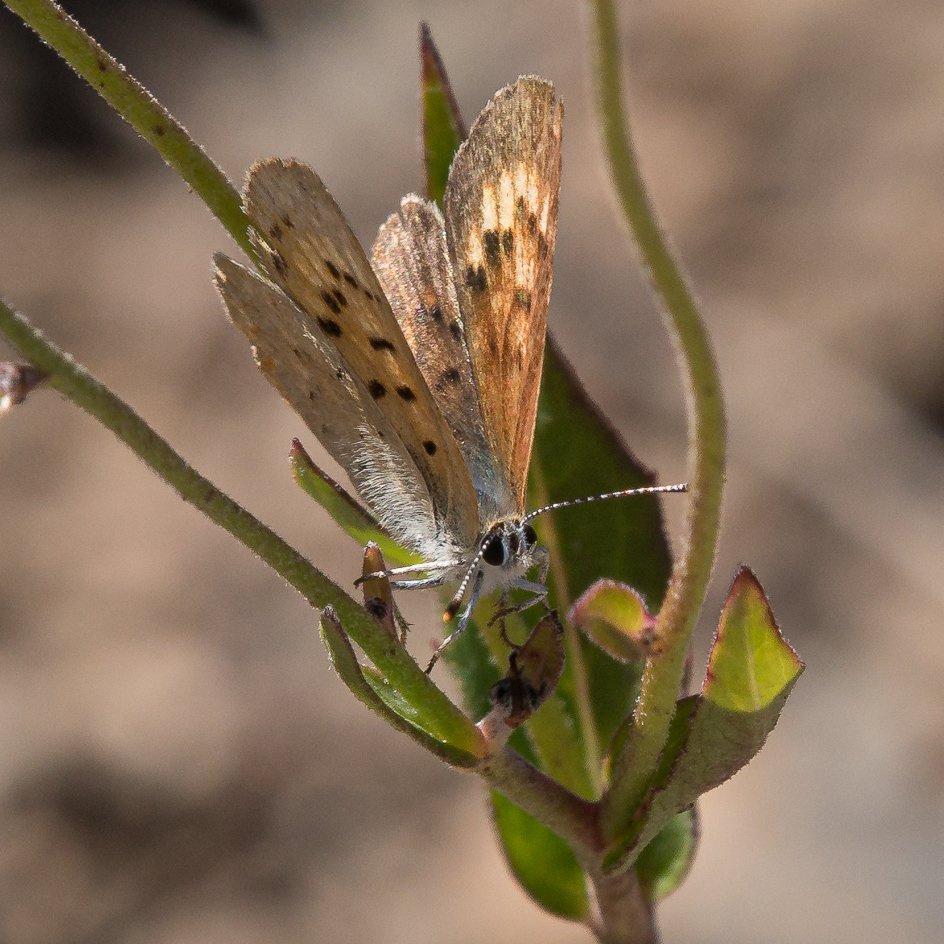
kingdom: Animalia
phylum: Arthropoda
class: Insecta
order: Lepidoptera
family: Lycaenidae
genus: Epidemia
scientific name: Epidemia dorcas
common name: Dorcas Copper
